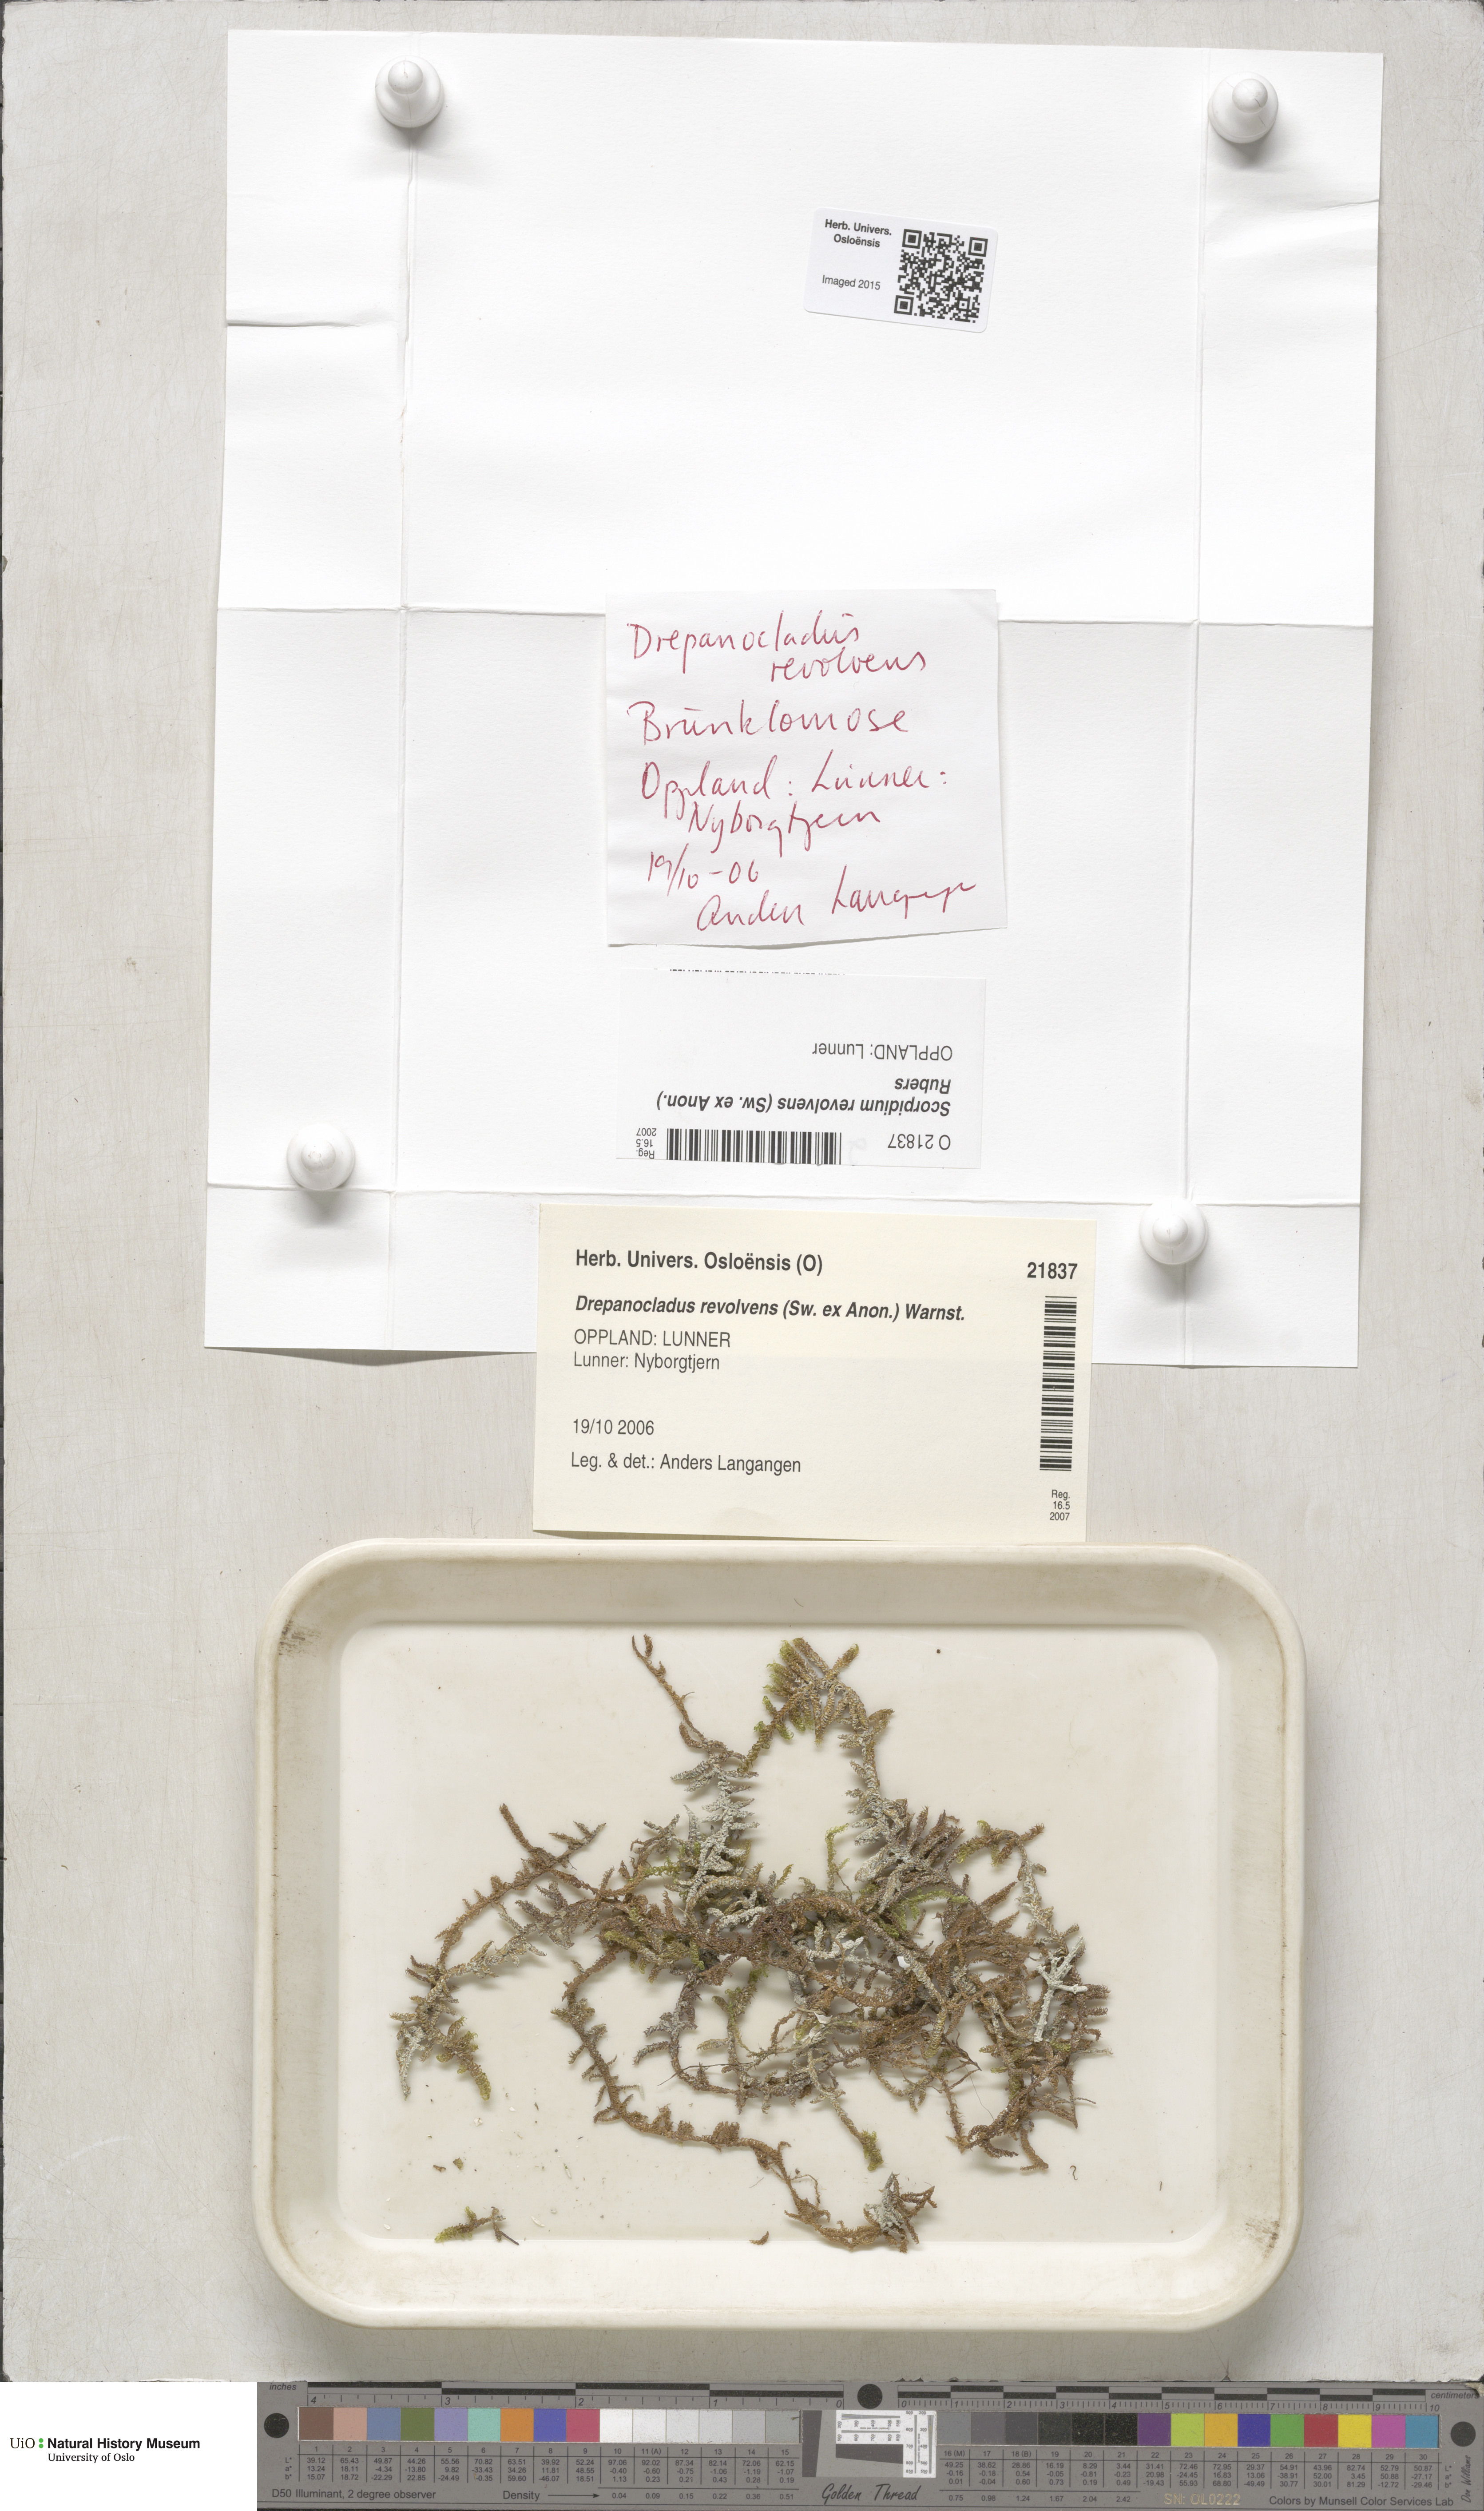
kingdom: Plantae
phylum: Bryophyta
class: Bryopsida
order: Hypnales
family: Scorpidiaceae
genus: Scorpidium
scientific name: Scorpidium revolvens
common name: Rusty hook moss
